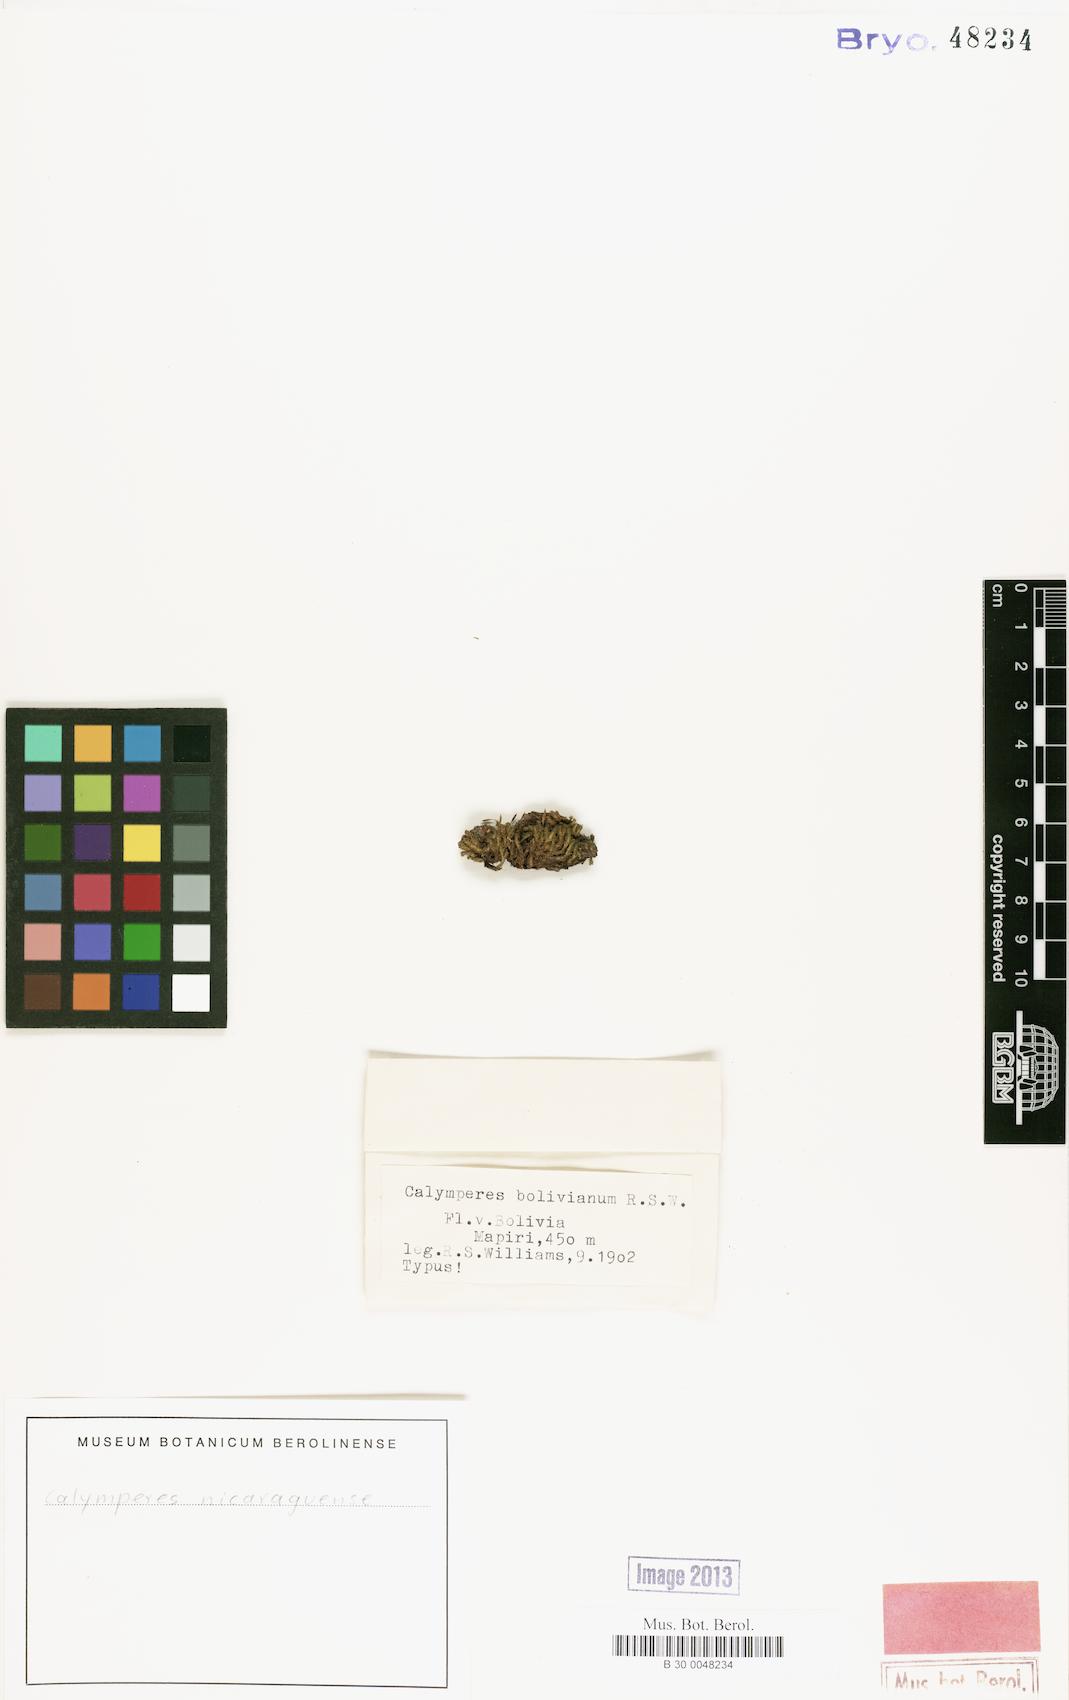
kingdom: Plantae
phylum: Bryophyta
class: Bryopsida
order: Dicranales
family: Calymperaceae
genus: Calymperes
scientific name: Calymperes nicaraguense
